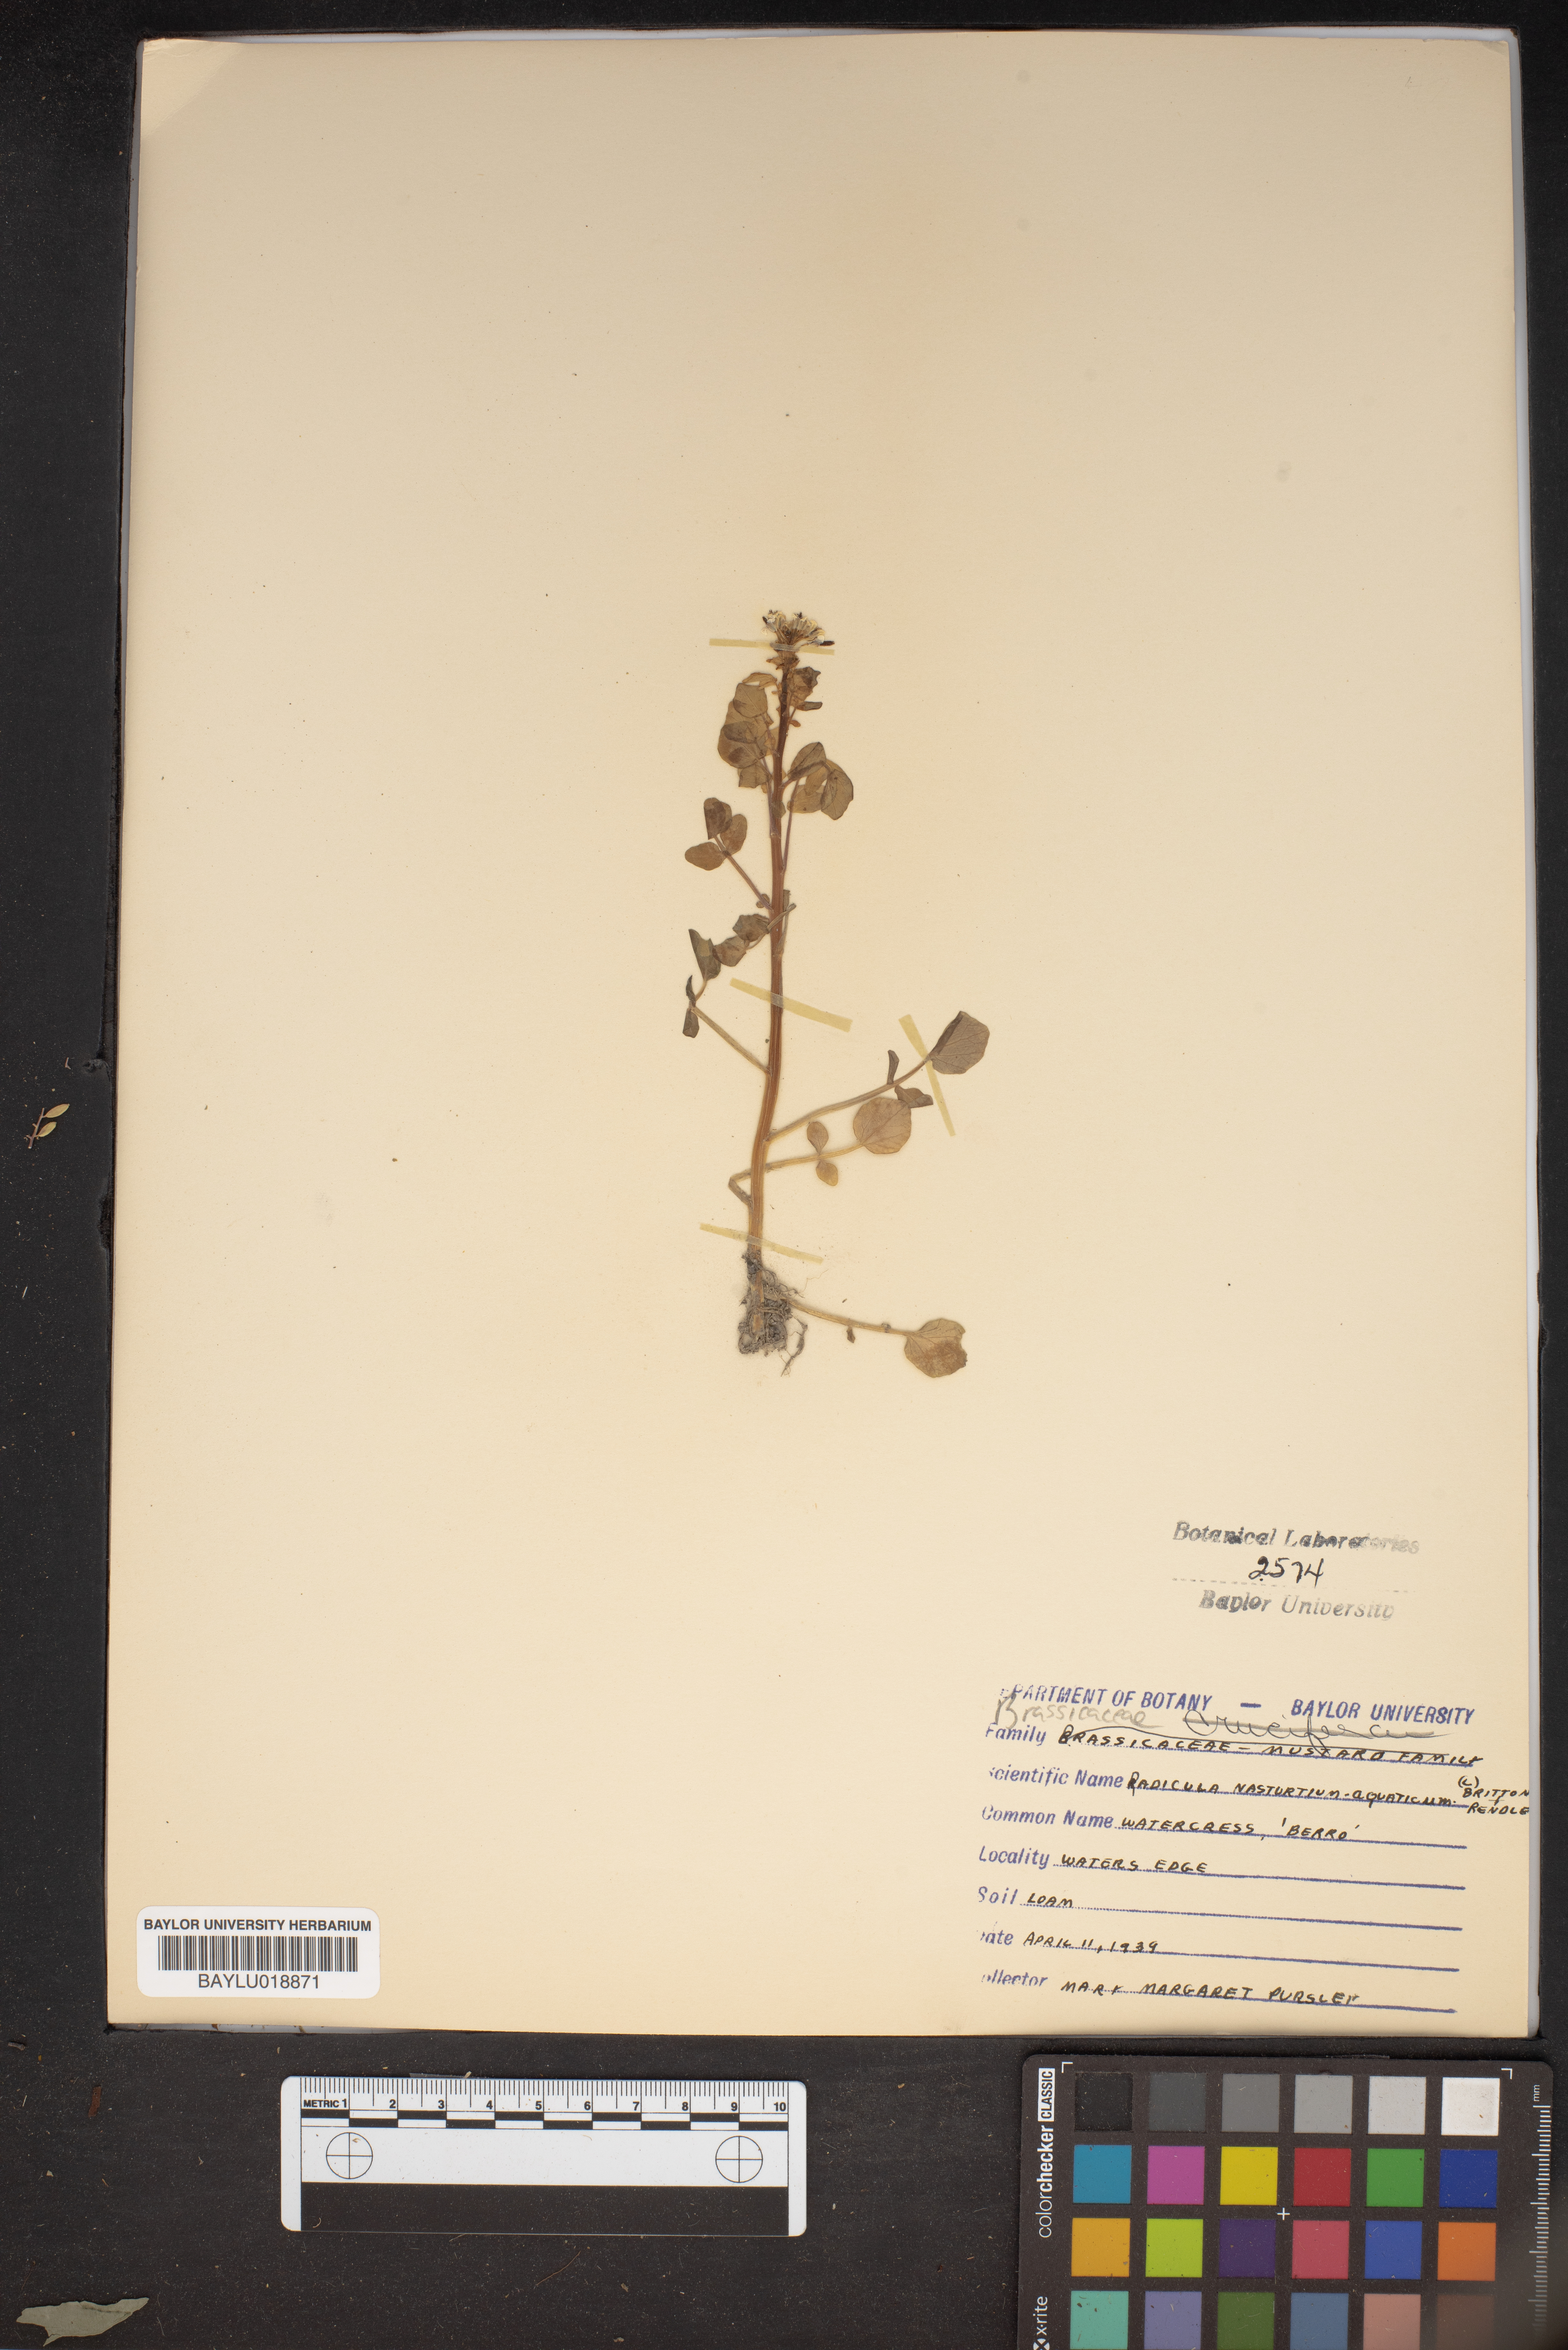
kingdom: Plantae
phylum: Tracheophyta
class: Magnoliopsida
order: Brassicales
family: Brassicaceae
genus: Nasturtium
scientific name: Nasturtium officinale
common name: Watercress
